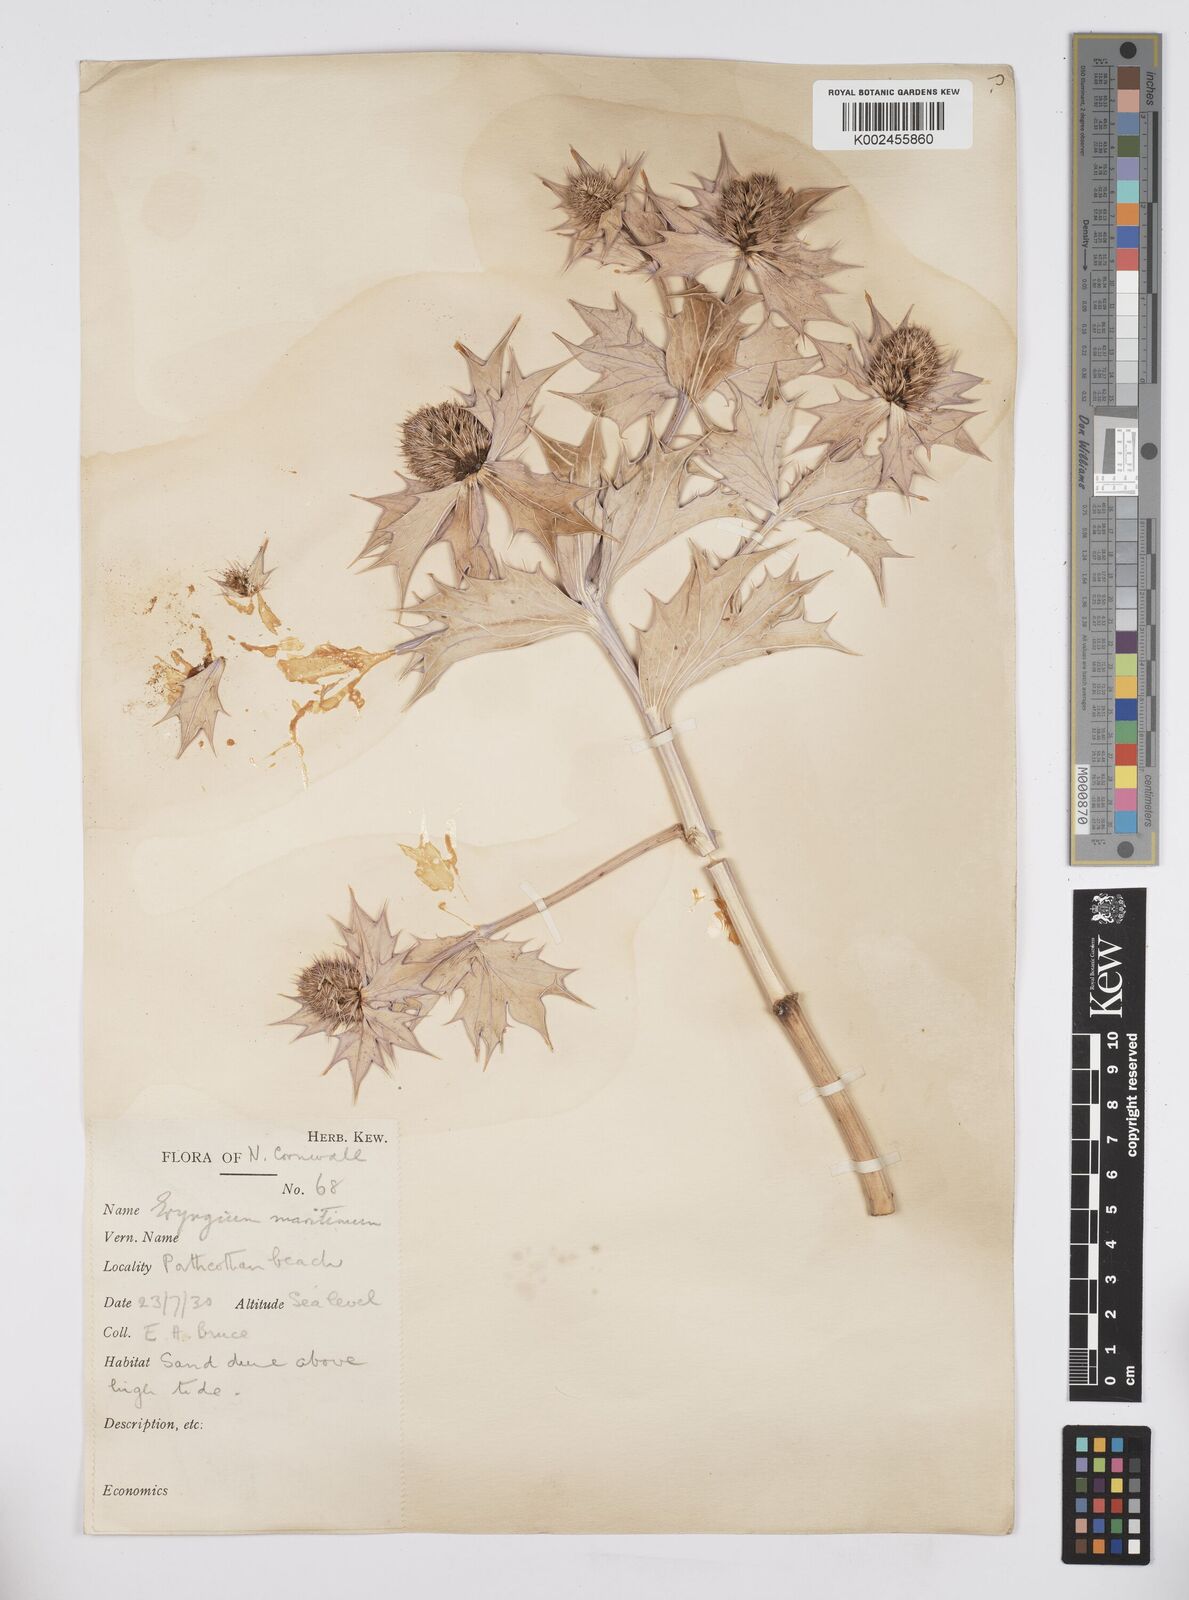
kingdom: Plantae
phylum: Tracheophyta
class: Magnoliopsida
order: Apiales
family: Apiaceae
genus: Eryngium
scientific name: Eryngium maritimum
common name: Sea-holly
